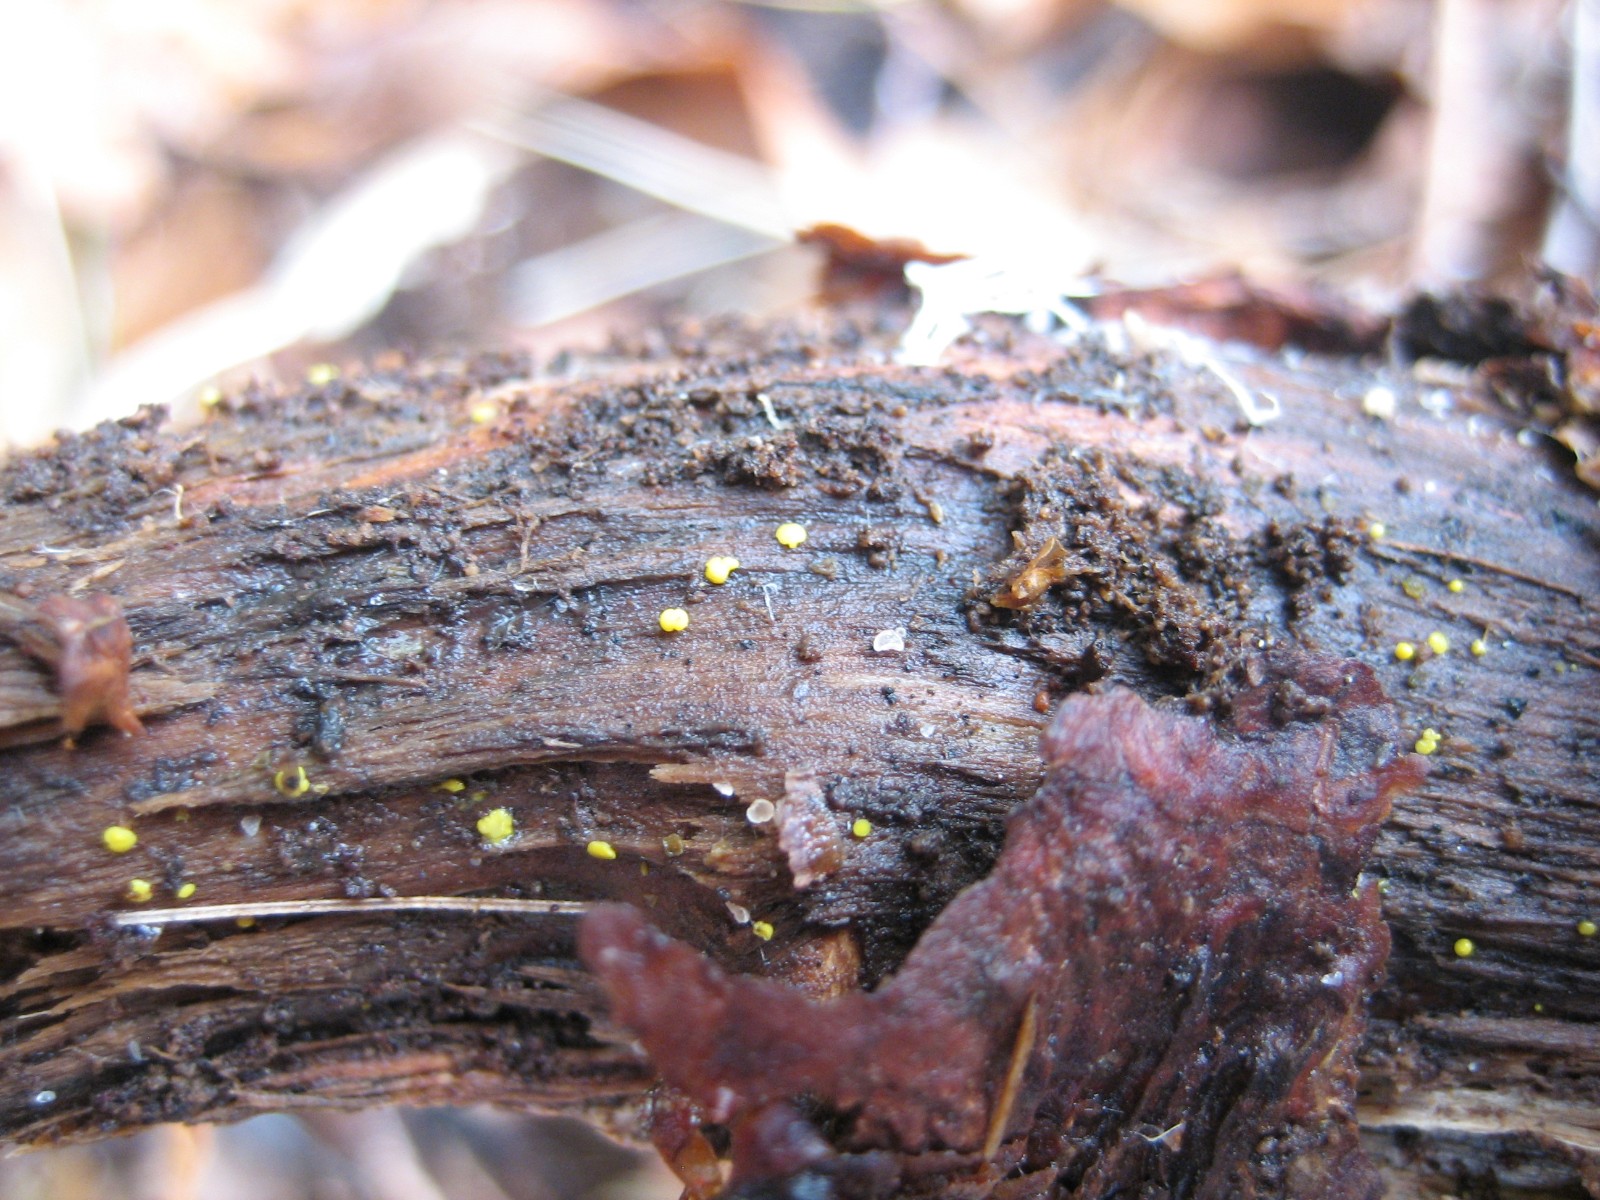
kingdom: Fungi
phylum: Ascomycota
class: Leotiomycetes
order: Helotiales
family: Pezizellaceae
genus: Calycina
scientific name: Calycina claroflava
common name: snyltende gulskive
